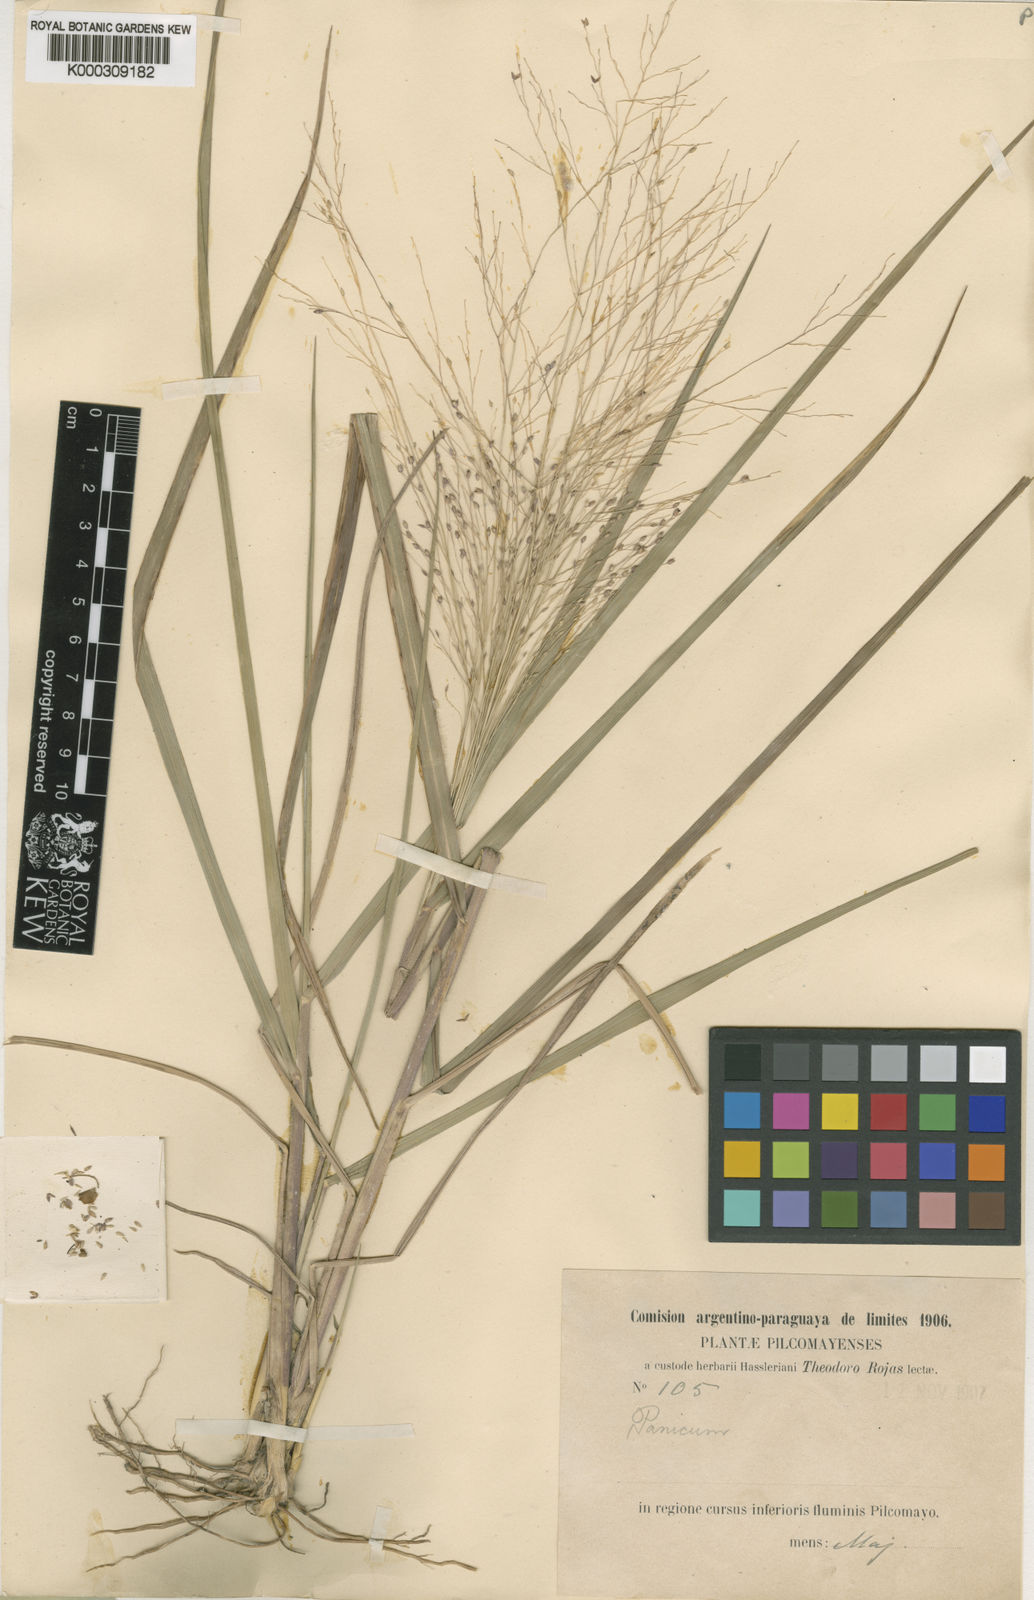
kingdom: Plantae
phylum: Tracheophyta
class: Liliopsida
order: Poales
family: Poaceae
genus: Panicum
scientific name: Panicum bergii
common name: Berg's panicgrass
